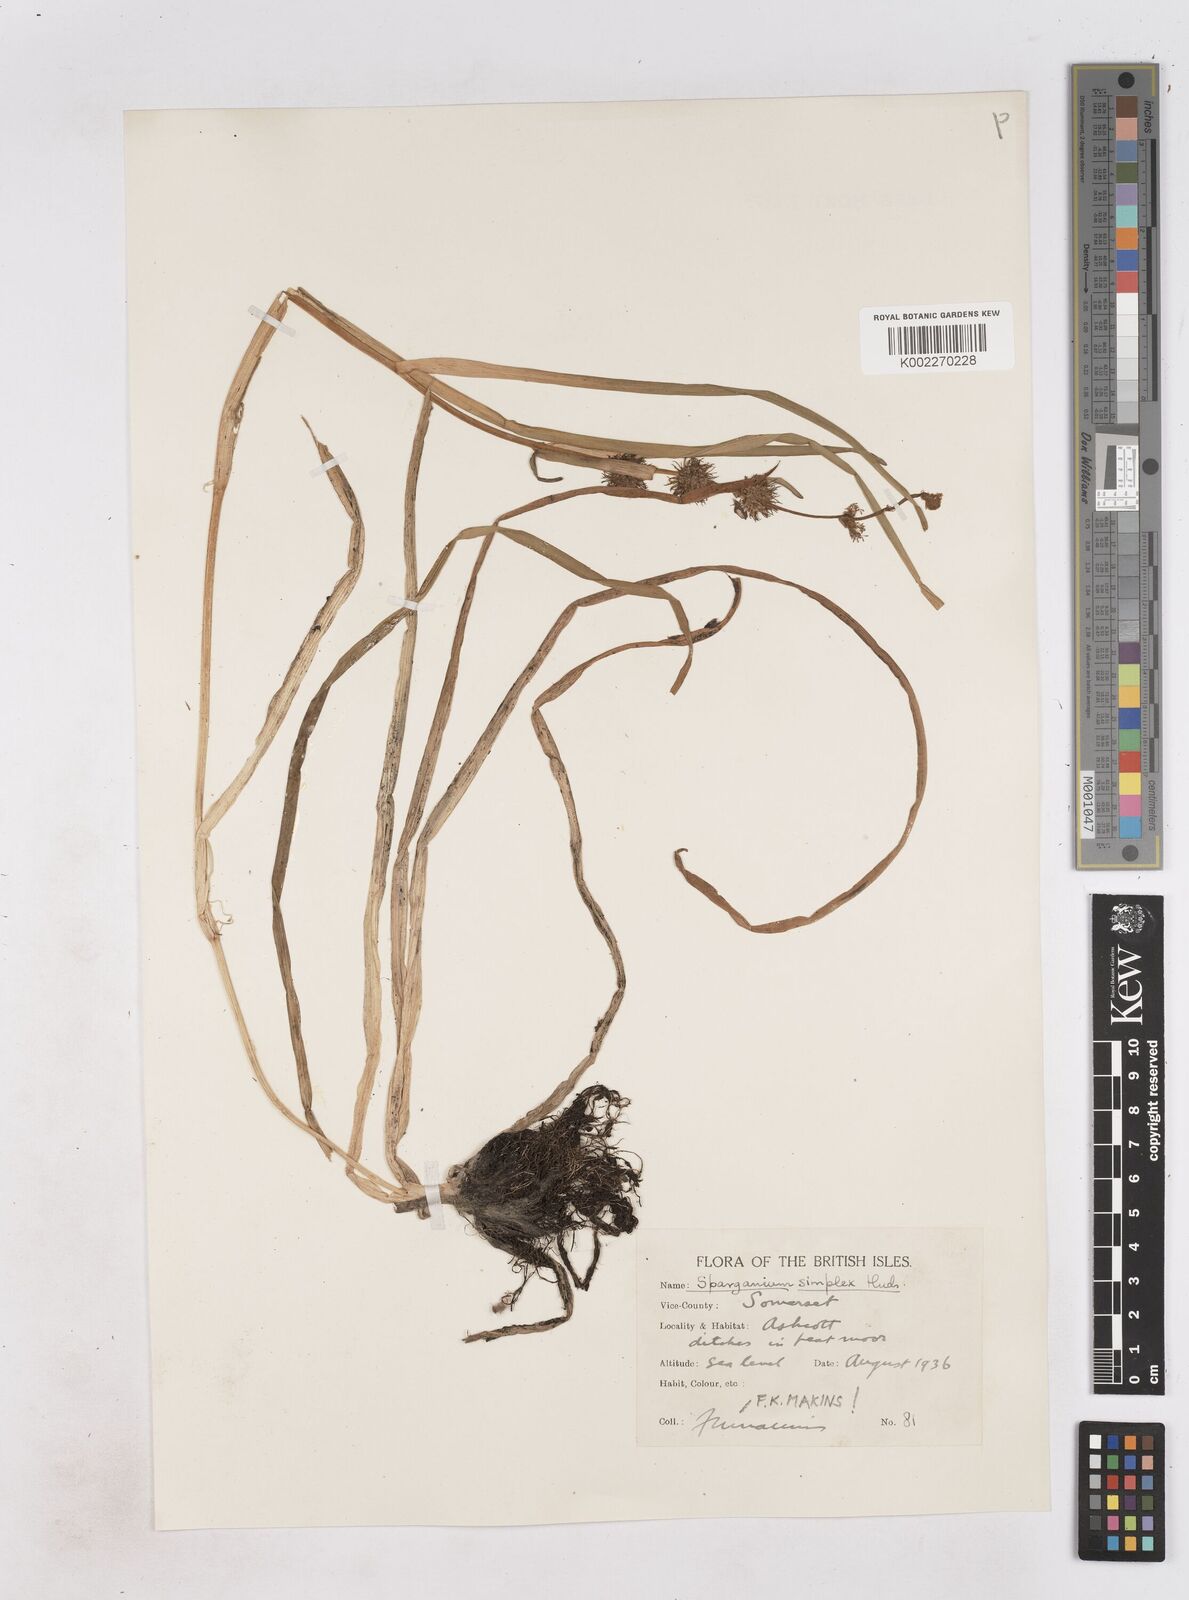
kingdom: Plantae
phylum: Tracheophyta
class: Liliopsida
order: Poales
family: Typhaceae
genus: Sparganium
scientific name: Sparganium emersum
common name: Unbranched bur-reed
